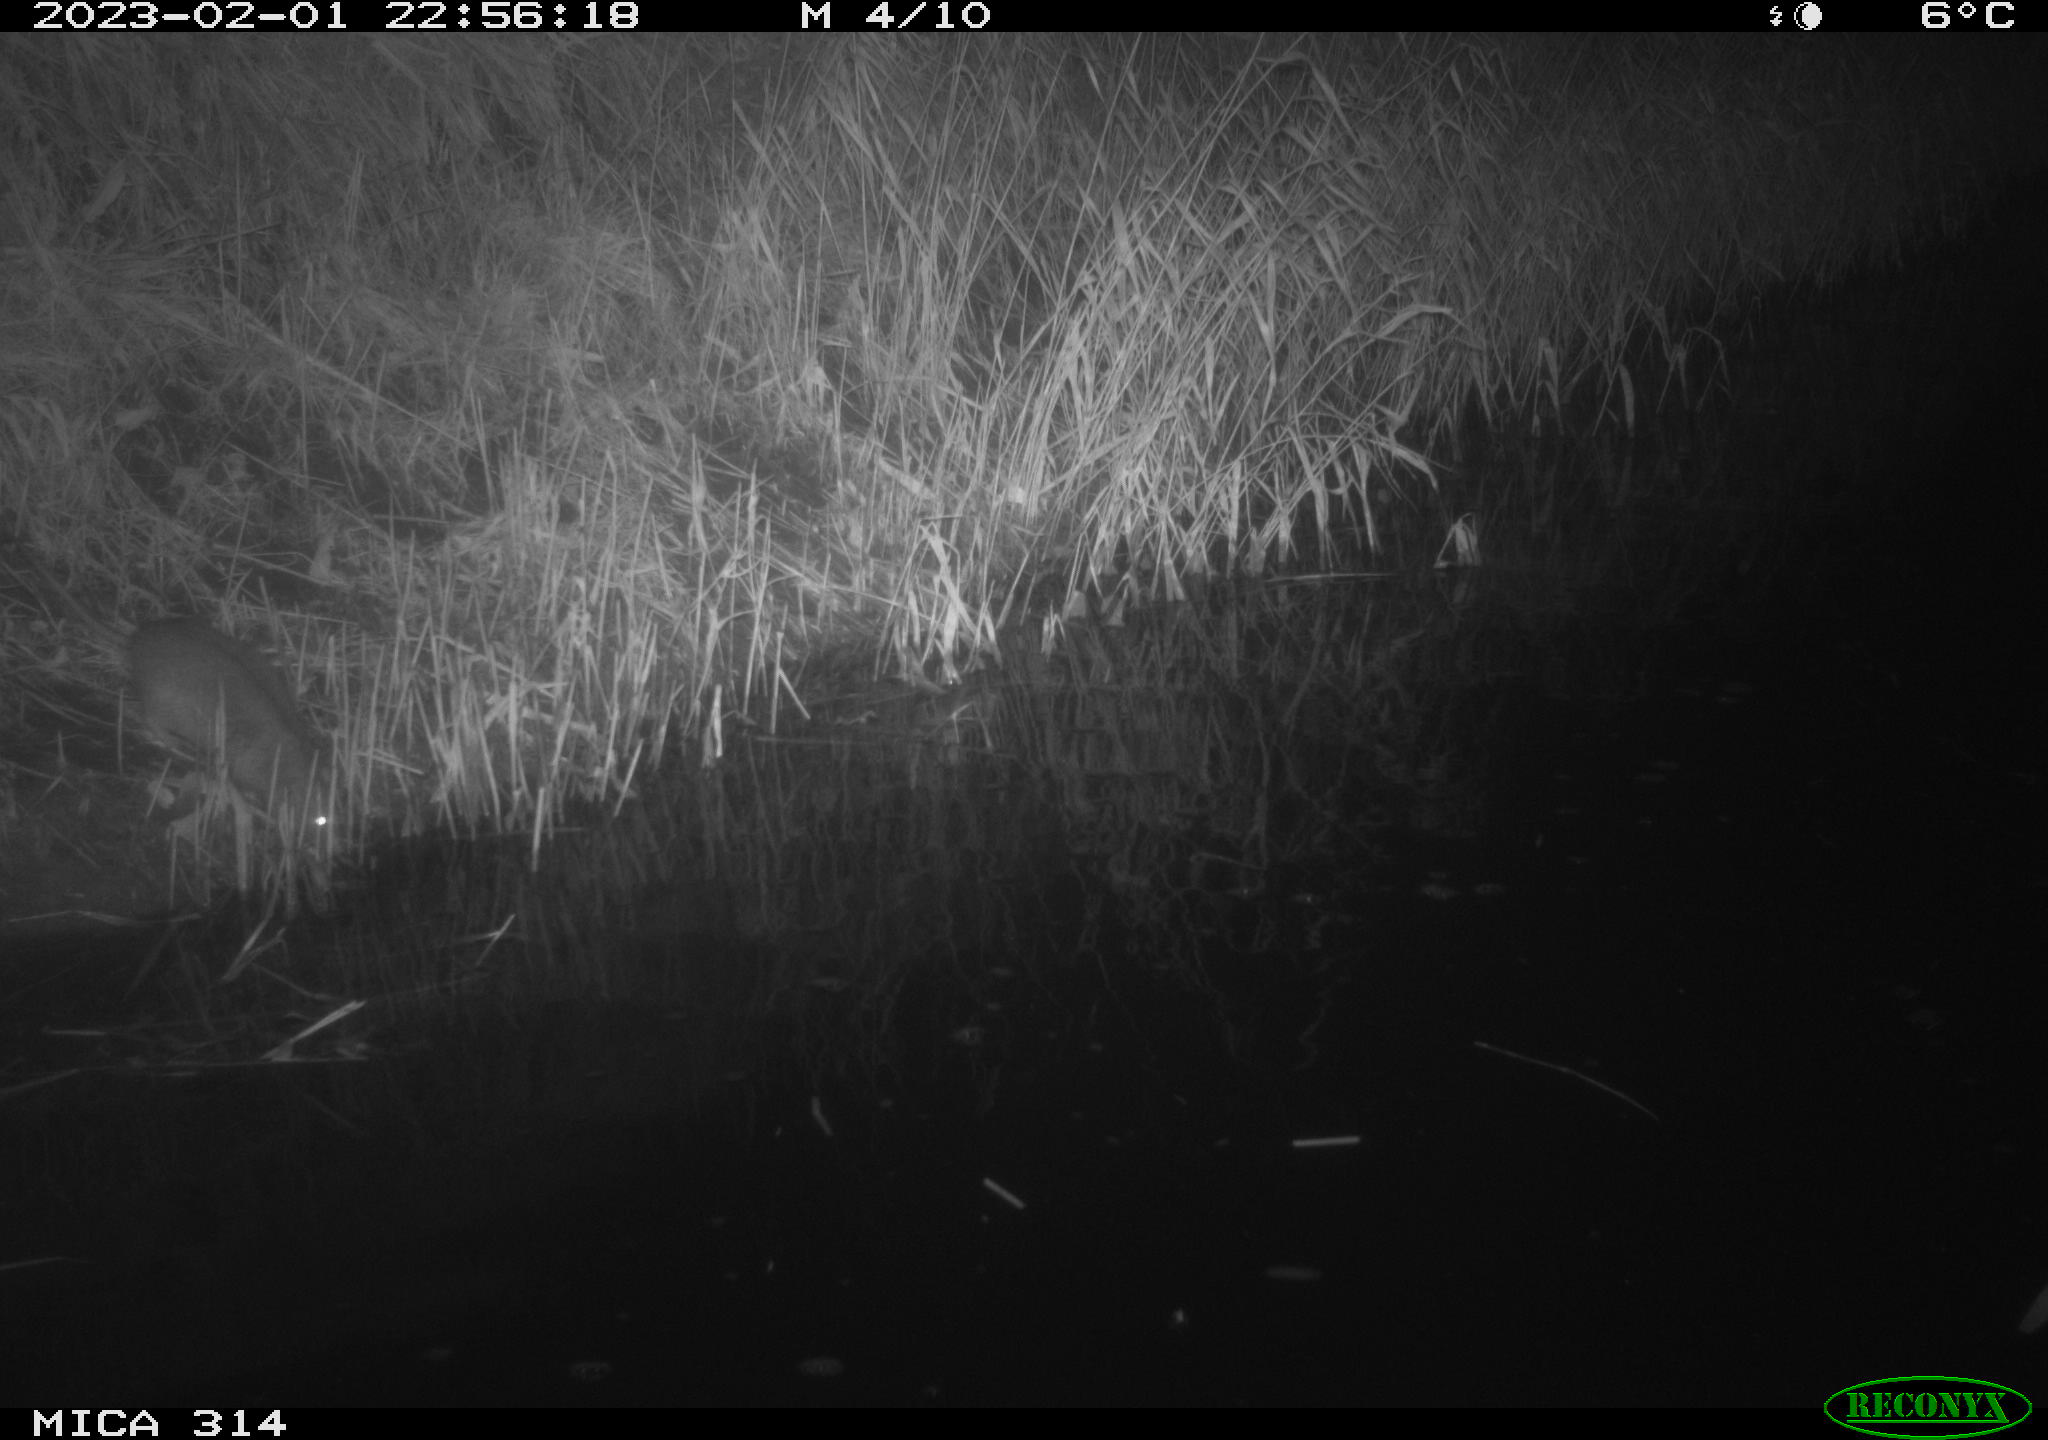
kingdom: Animalia
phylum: Chordata
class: Mammalia
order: Rodentia
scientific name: Rodentia
